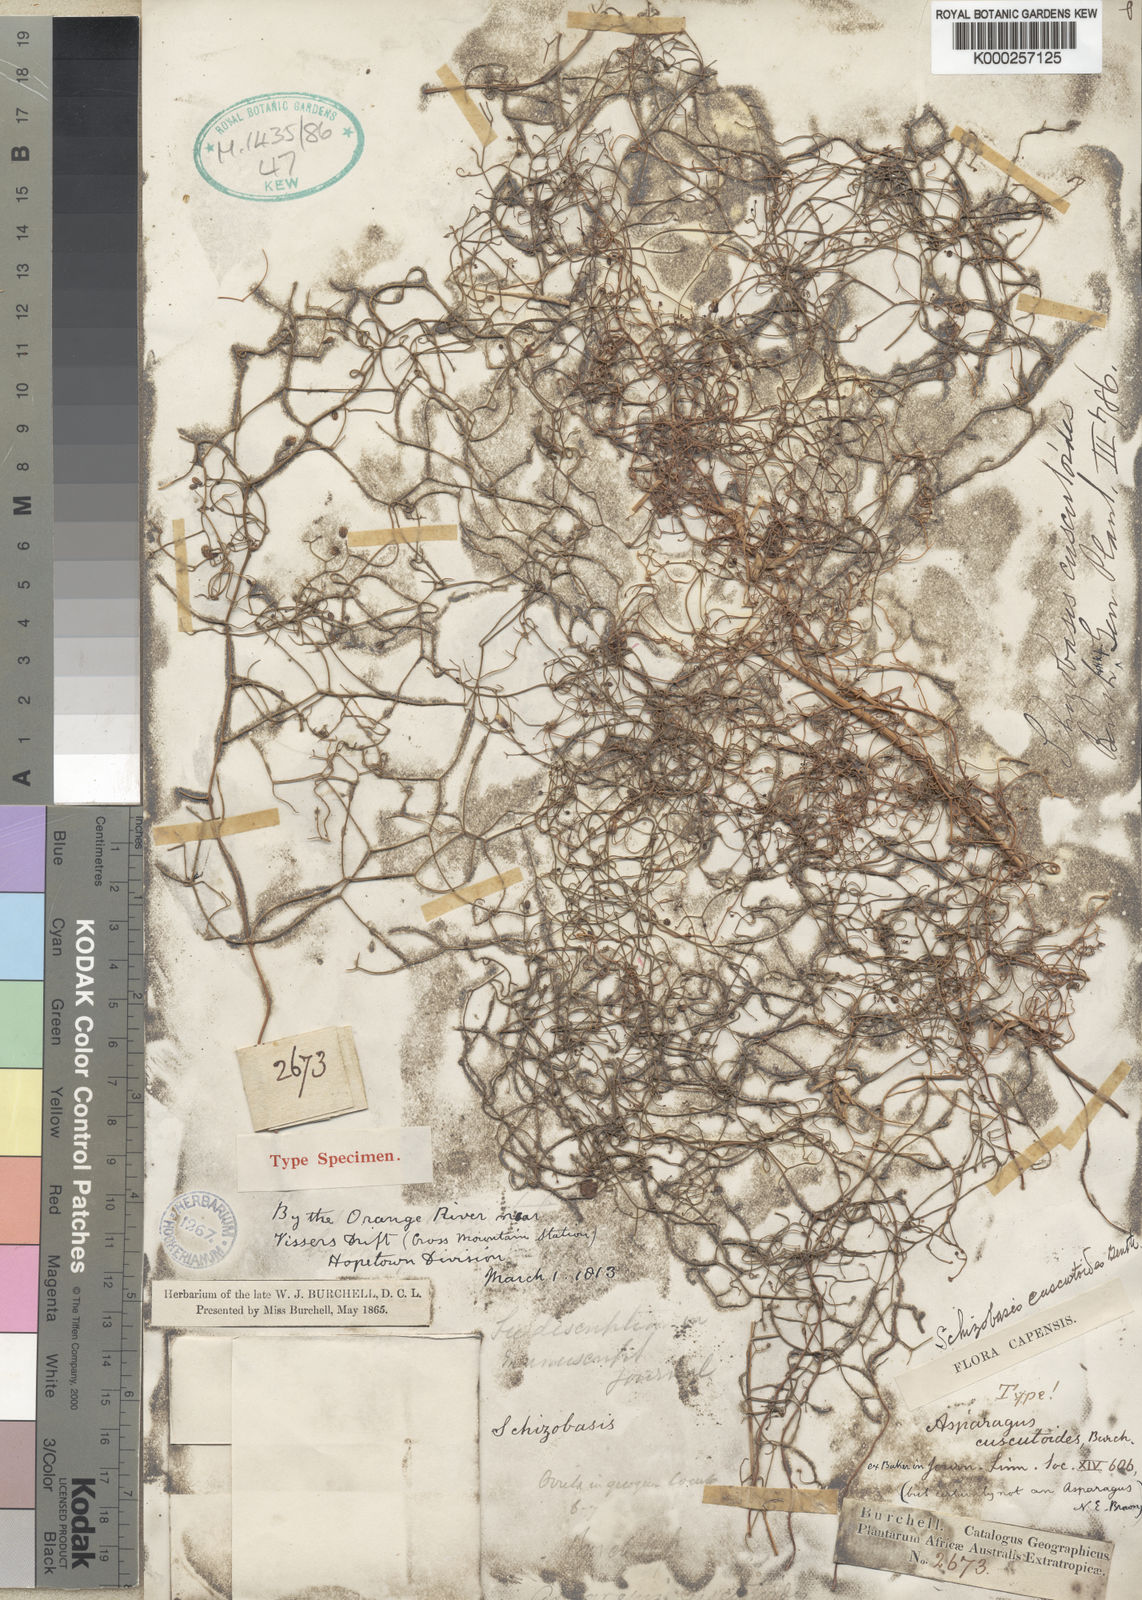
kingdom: Plantae
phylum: Tracheophyta
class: Liliopsida
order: Asparagales
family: Asparagaceae
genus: Drimia
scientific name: Drimia intricata
